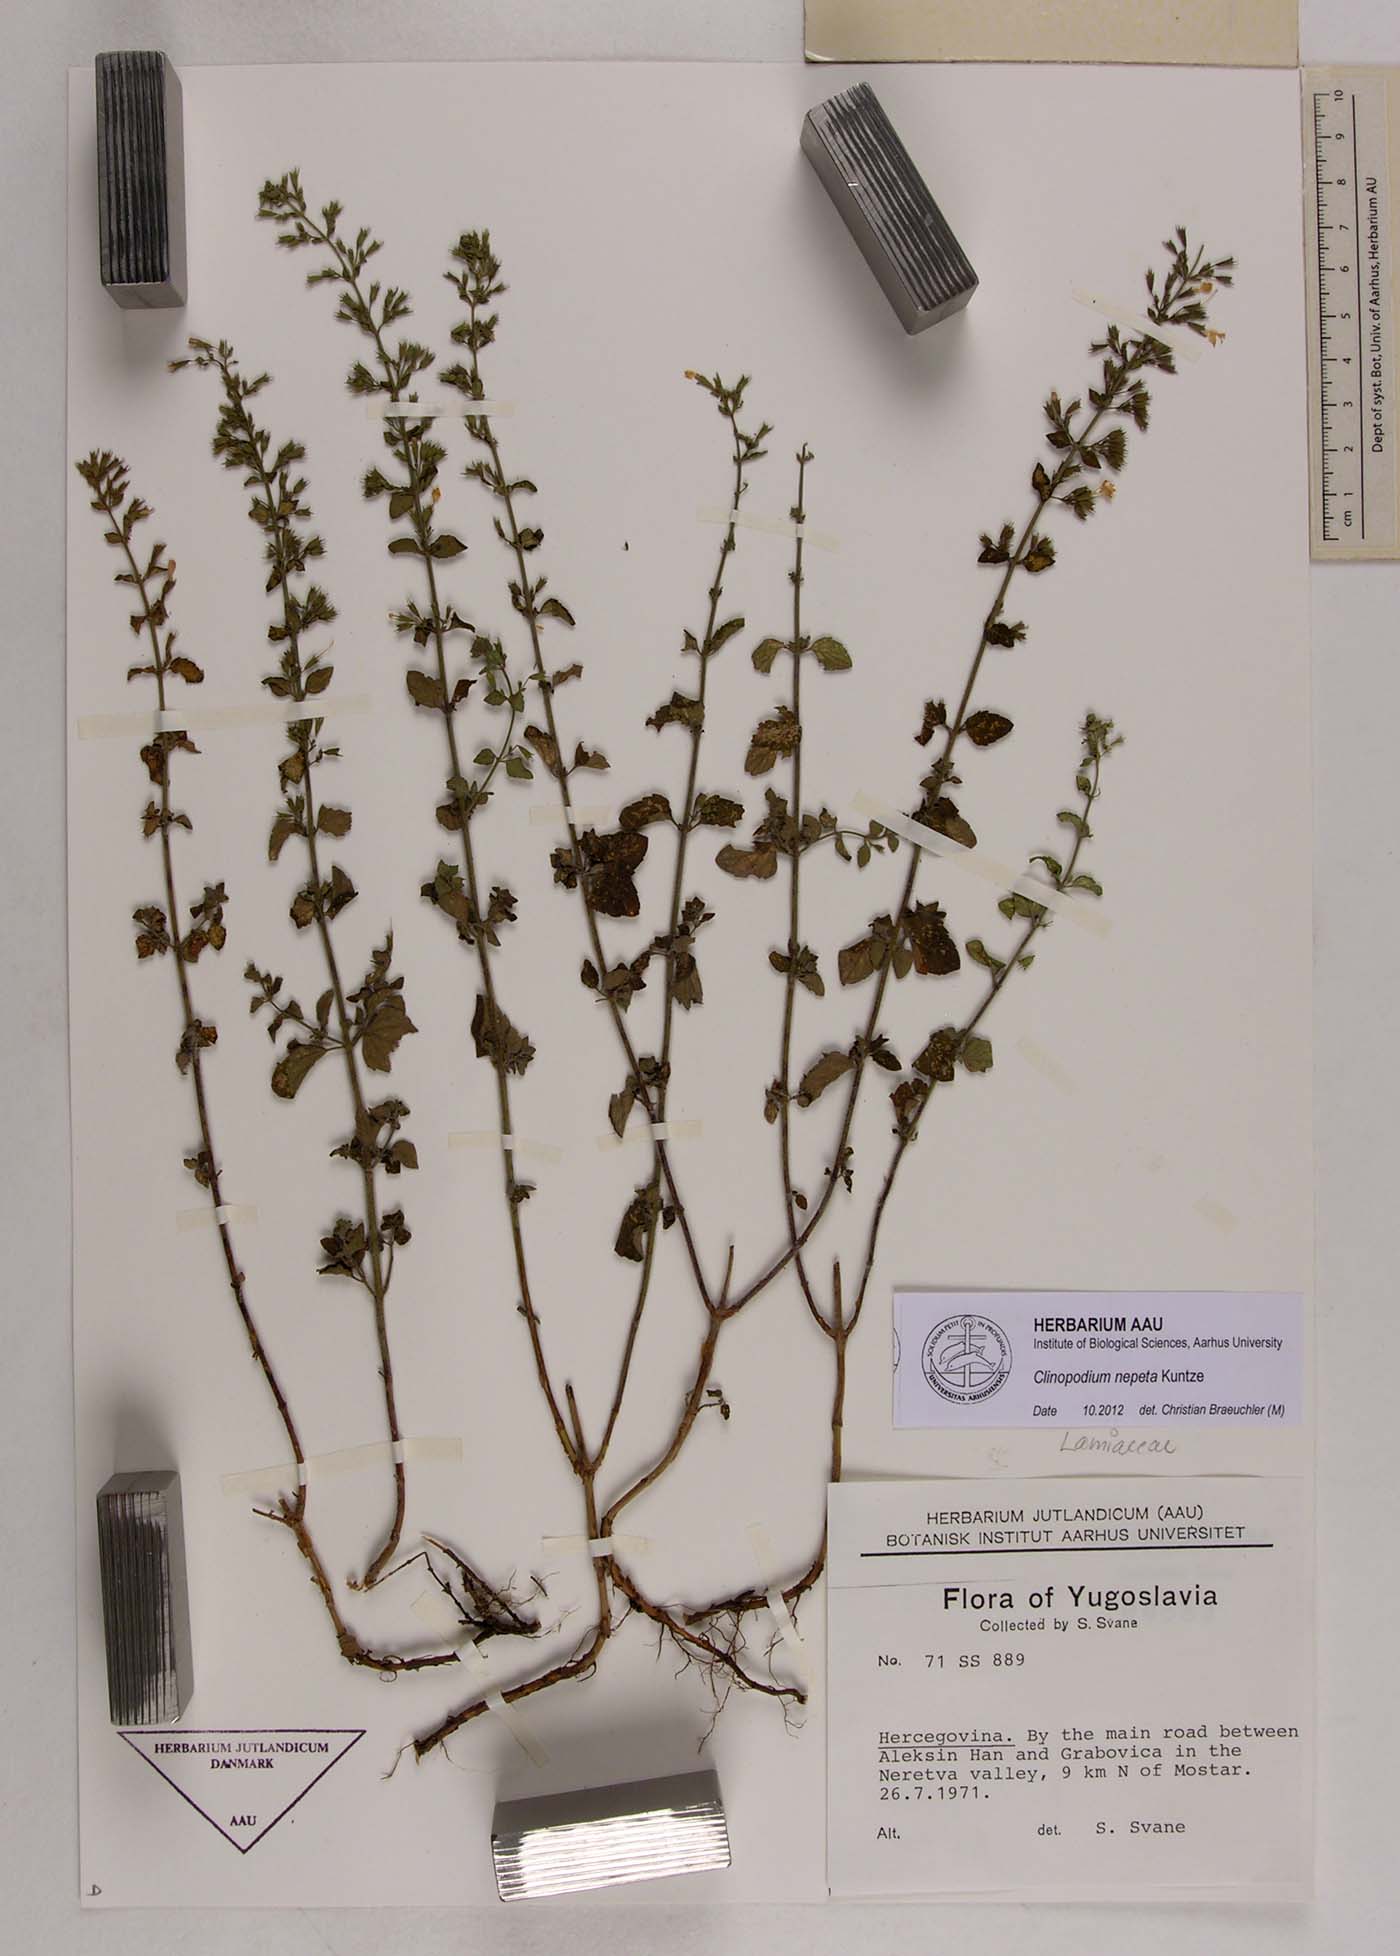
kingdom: Plantae
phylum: Tracheophyta
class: Magnoliopsida
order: Lamiales
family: Lamiaceae
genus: Clinopodium
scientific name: Clinopodium nepeta
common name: Lesser calamint
